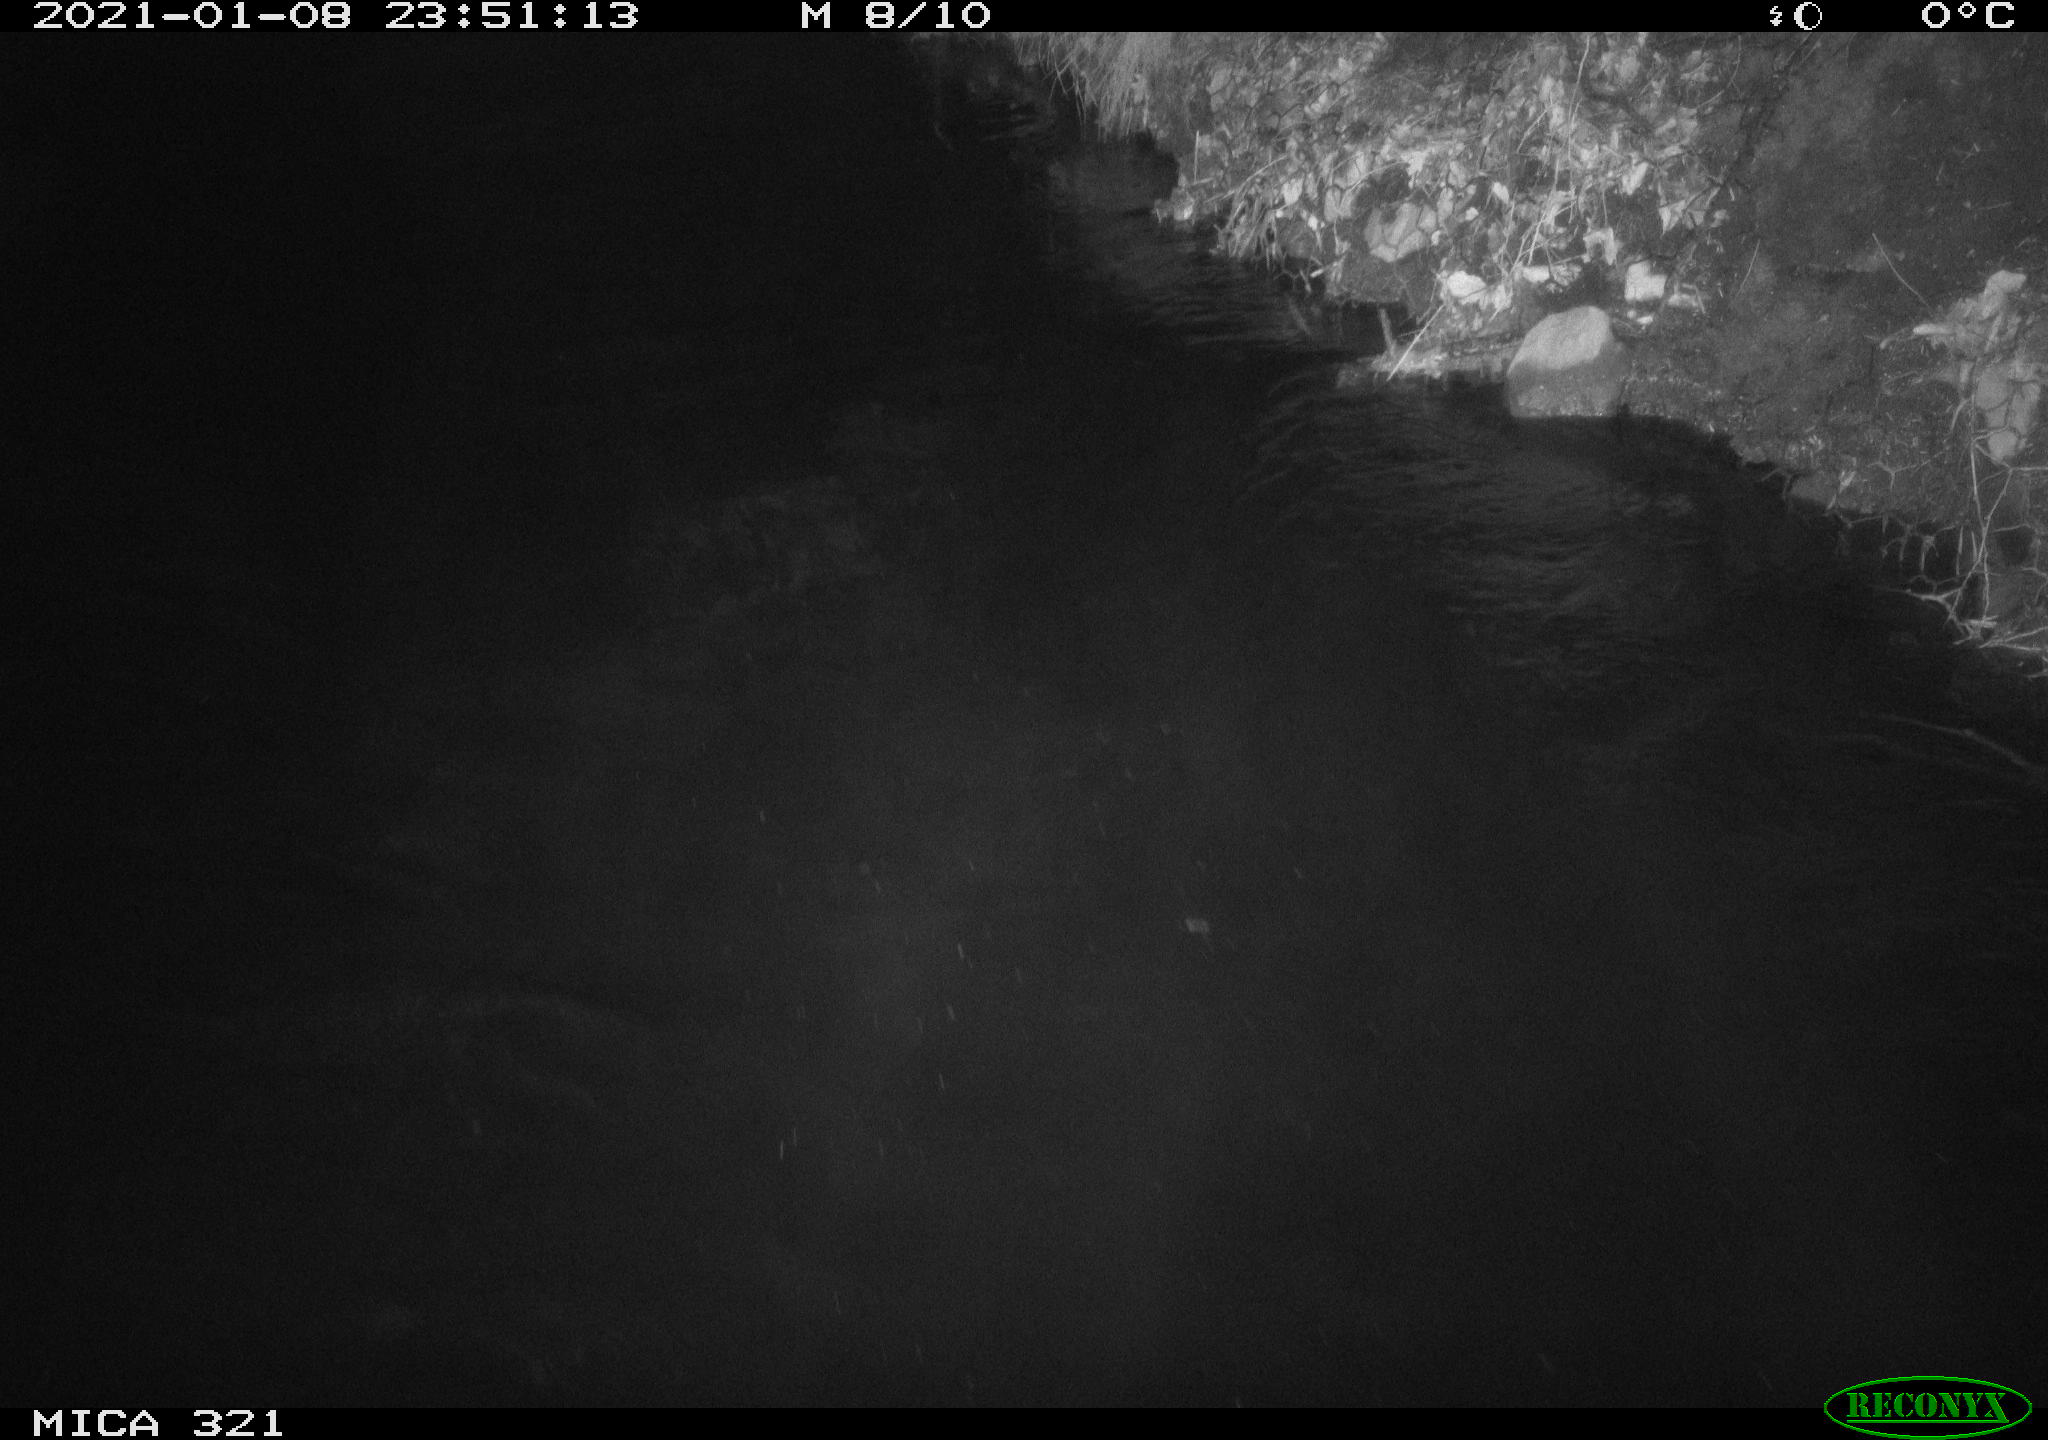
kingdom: Animalia
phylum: Chordata
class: Aves
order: Anseriformes
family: Anatidae
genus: Anas
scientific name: Anas platyrhynchos
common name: Mallard
